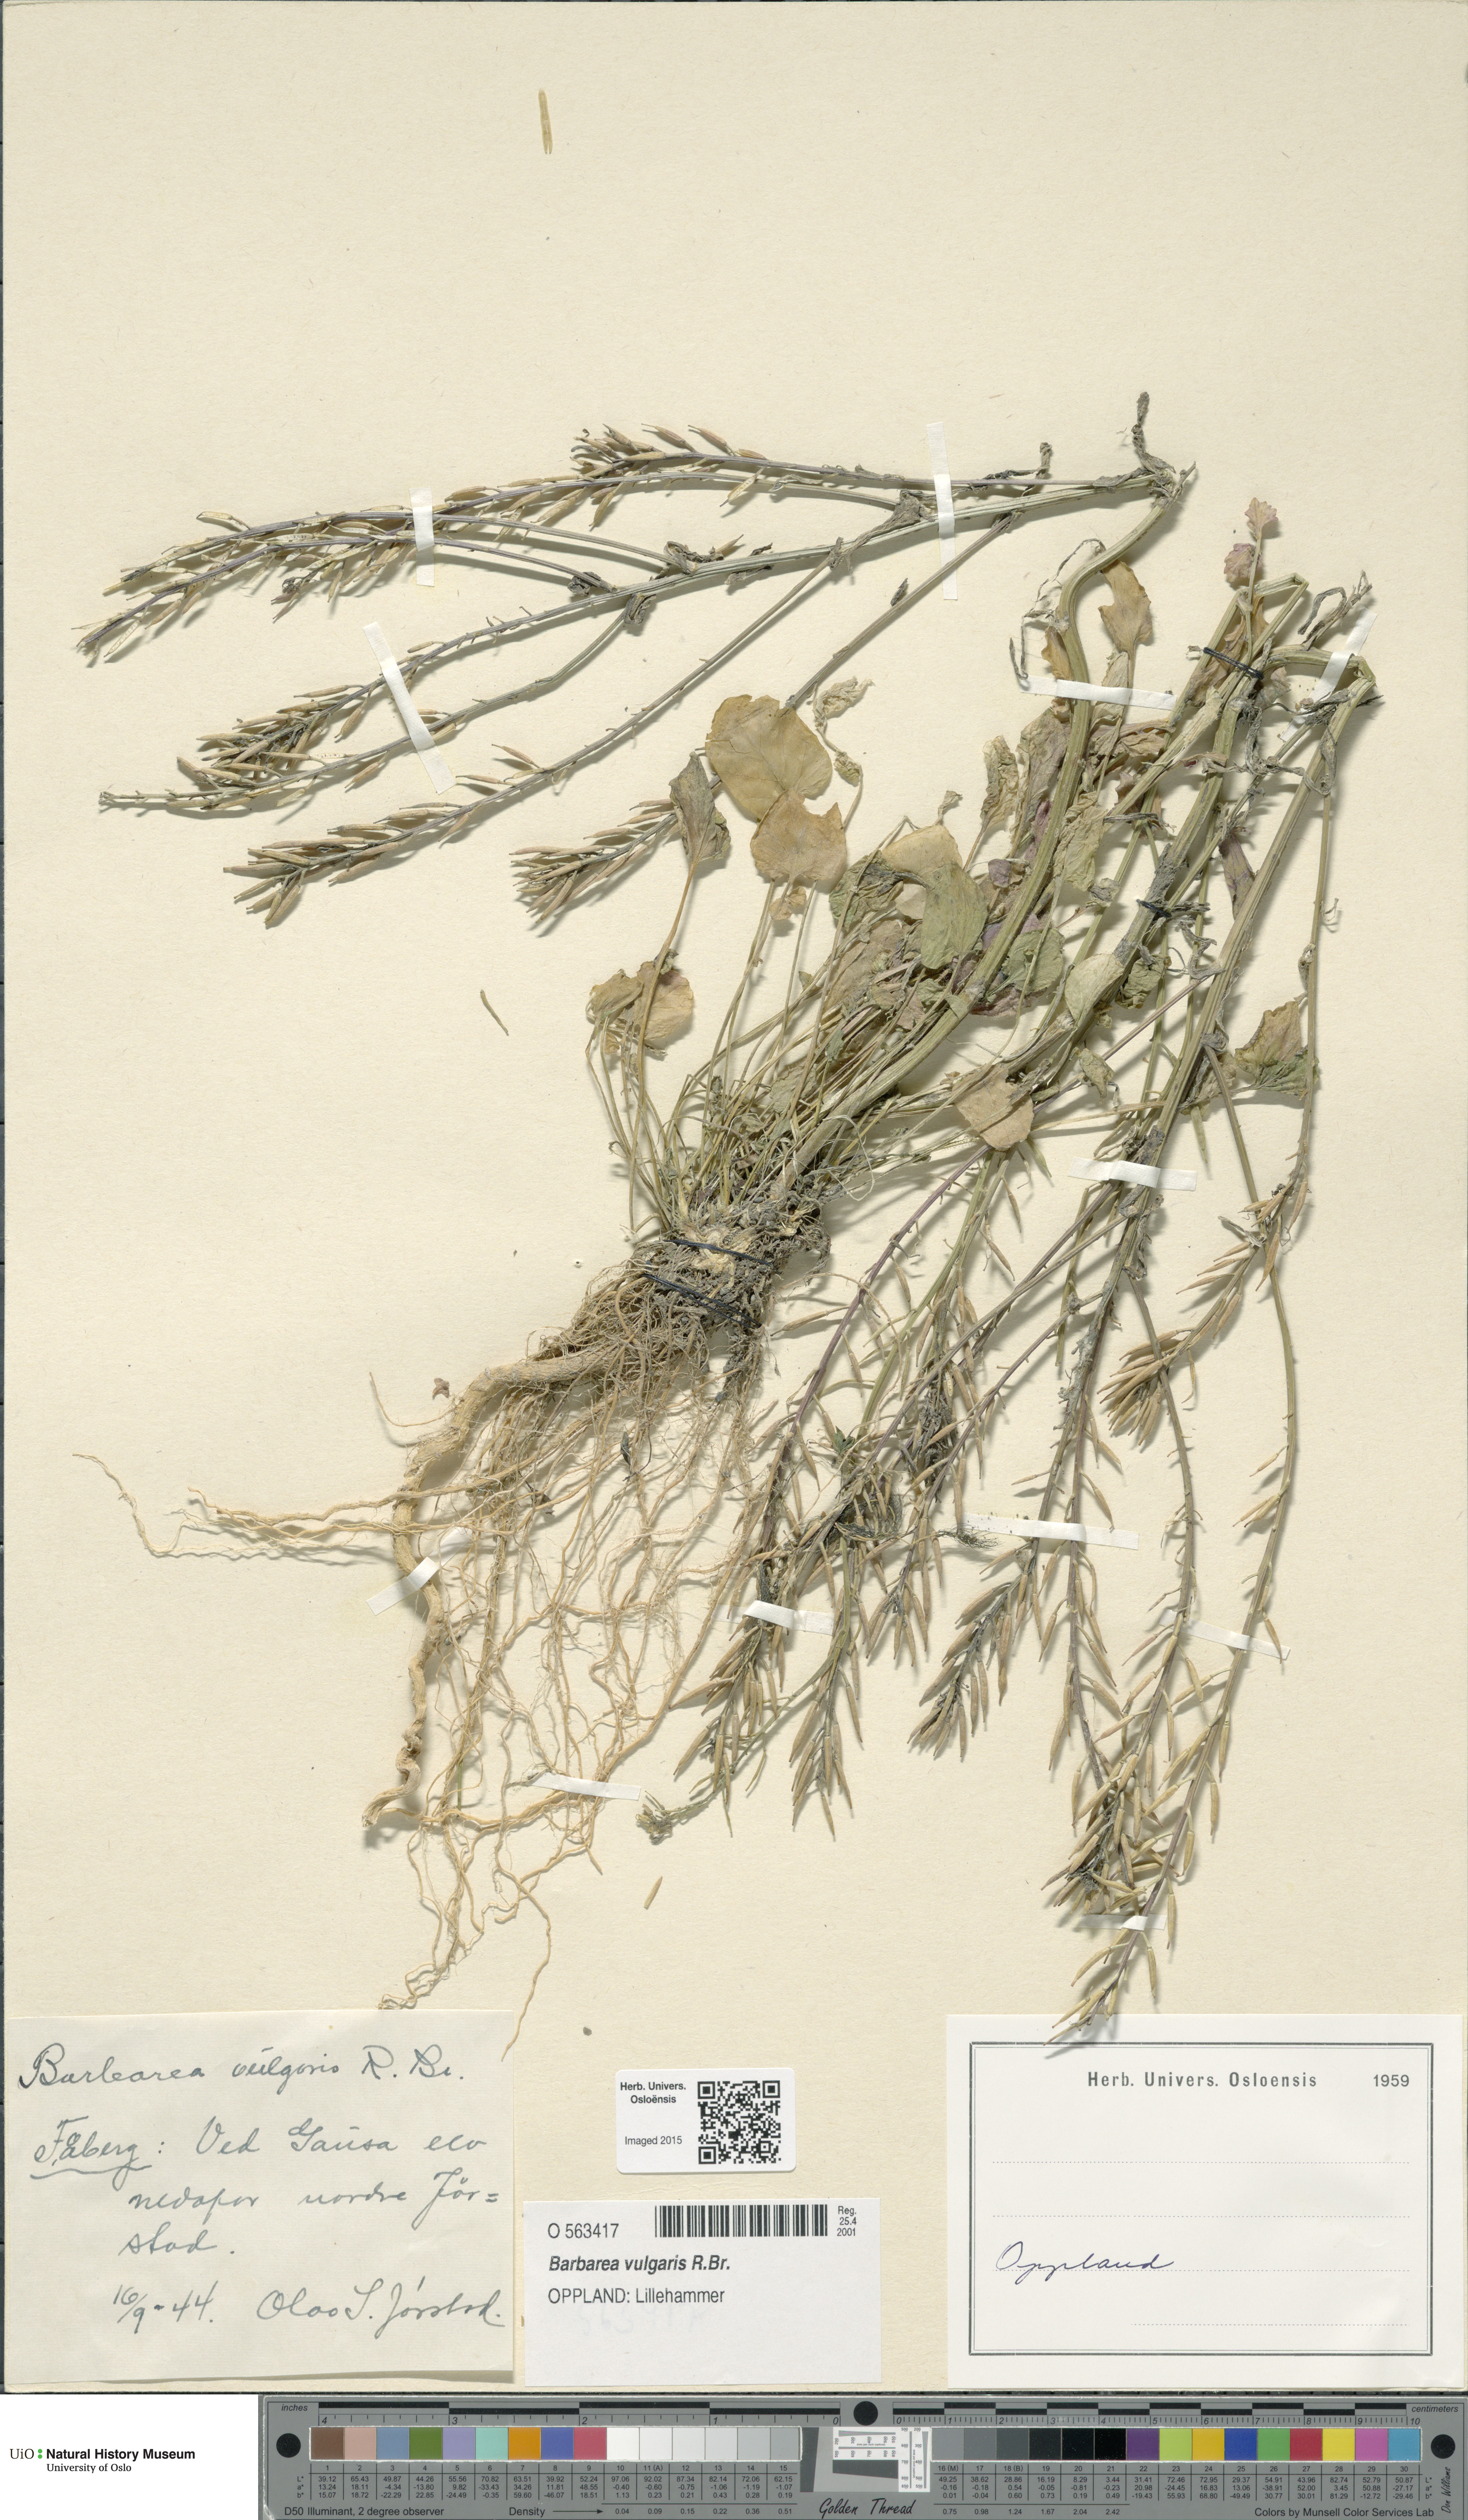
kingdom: Plantae
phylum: Tracheophyta
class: Magnoliopsida
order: Brassicales
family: Brassicaceae
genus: Barbarea
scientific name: Barbarea vulgaris
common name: Cressy-greens
